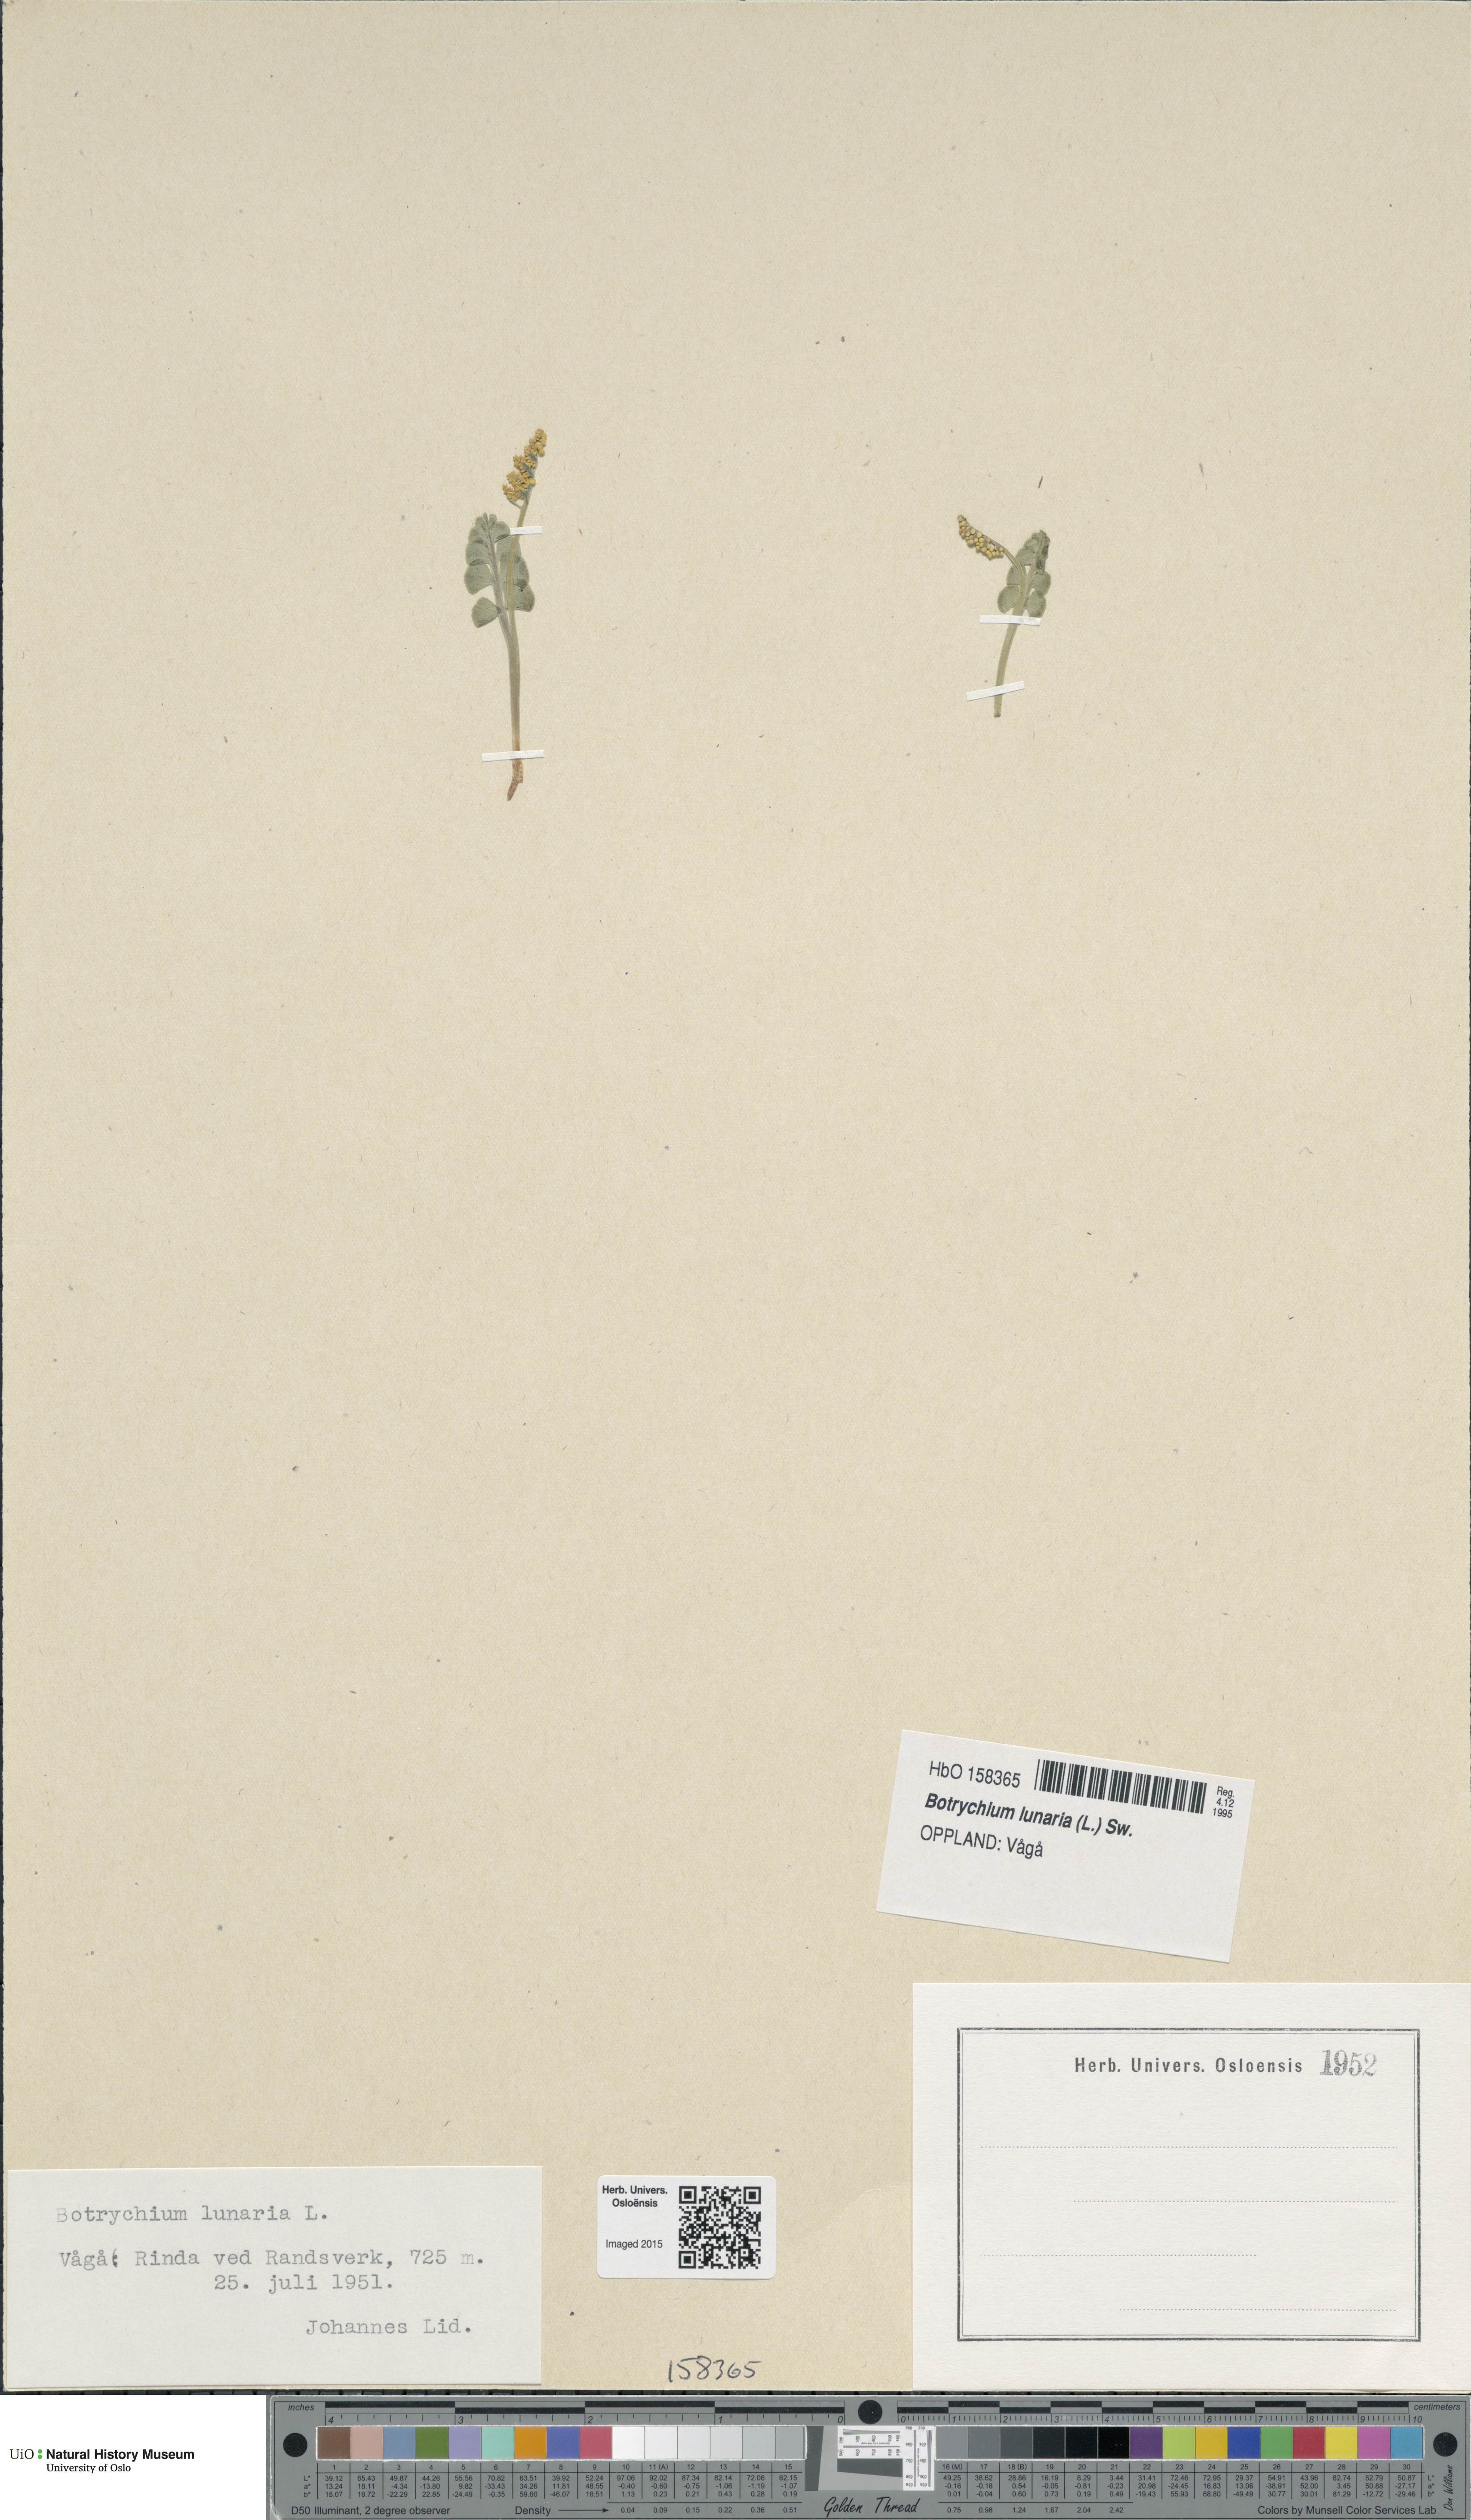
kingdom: Plantae
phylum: Tracheophyta
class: Polypodiopsida
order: Ophioglossales
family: Ophioglossaceae
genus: Botrychium
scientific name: Botrychium lunaria
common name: Moonwort
